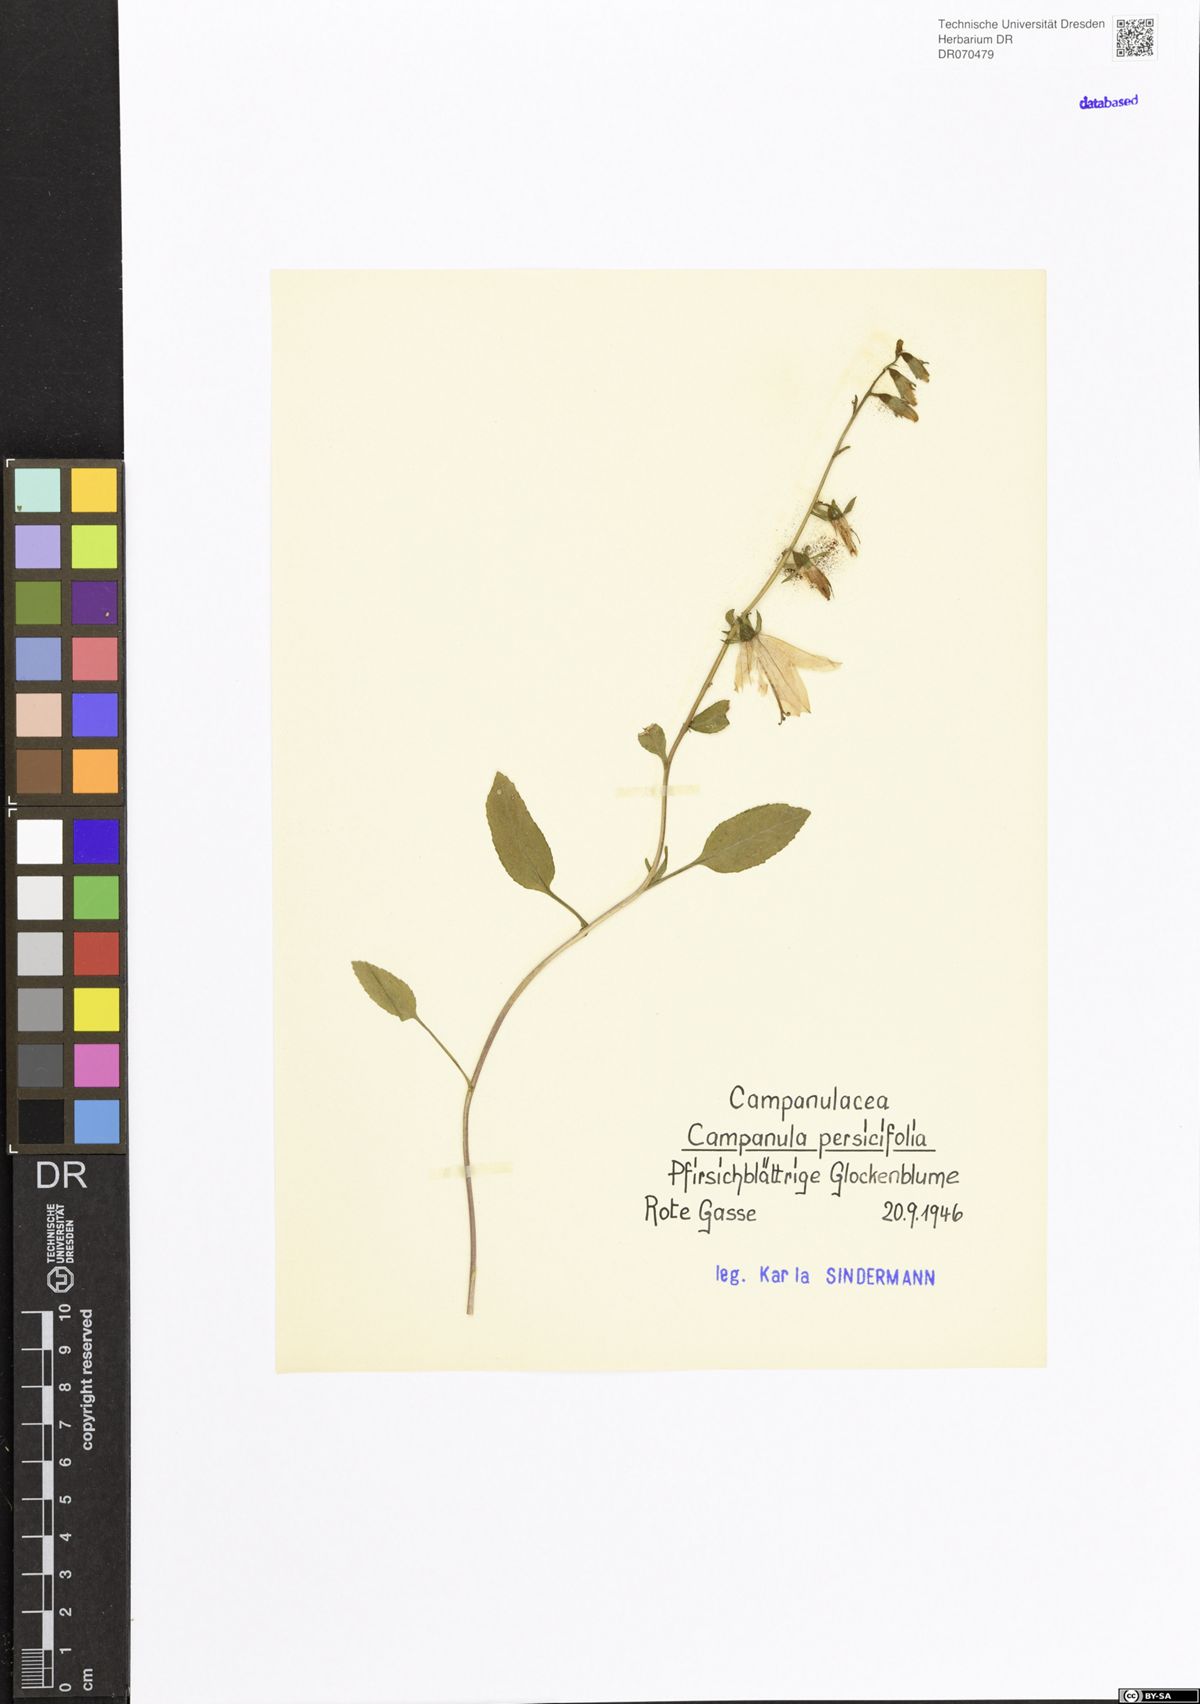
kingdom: Plantae
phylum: Tracheophyta
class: Magnoliopsida
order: Asterales
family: Campanulaceae
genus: Campanula
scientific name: Campanula persicifolia
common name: Peach-leaved bellflower
